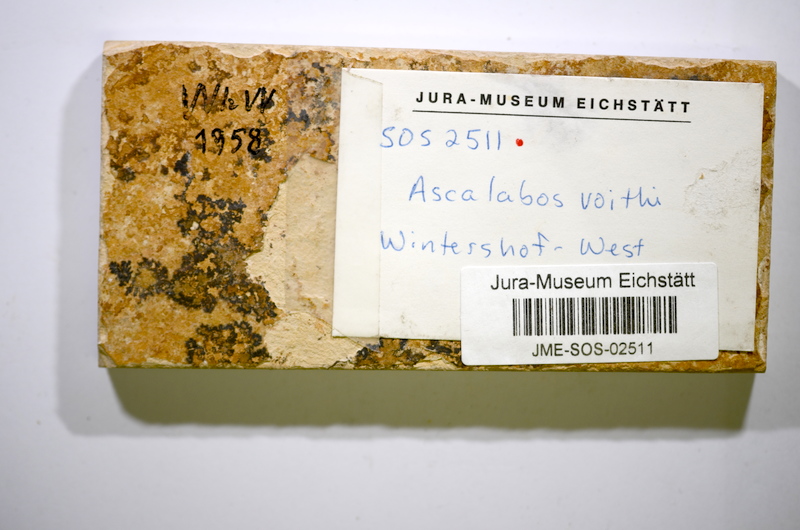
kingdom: Animalia
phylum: Chordata
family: Ascalaboidae
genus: Ascalabos
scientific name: Ascalabos voithii
